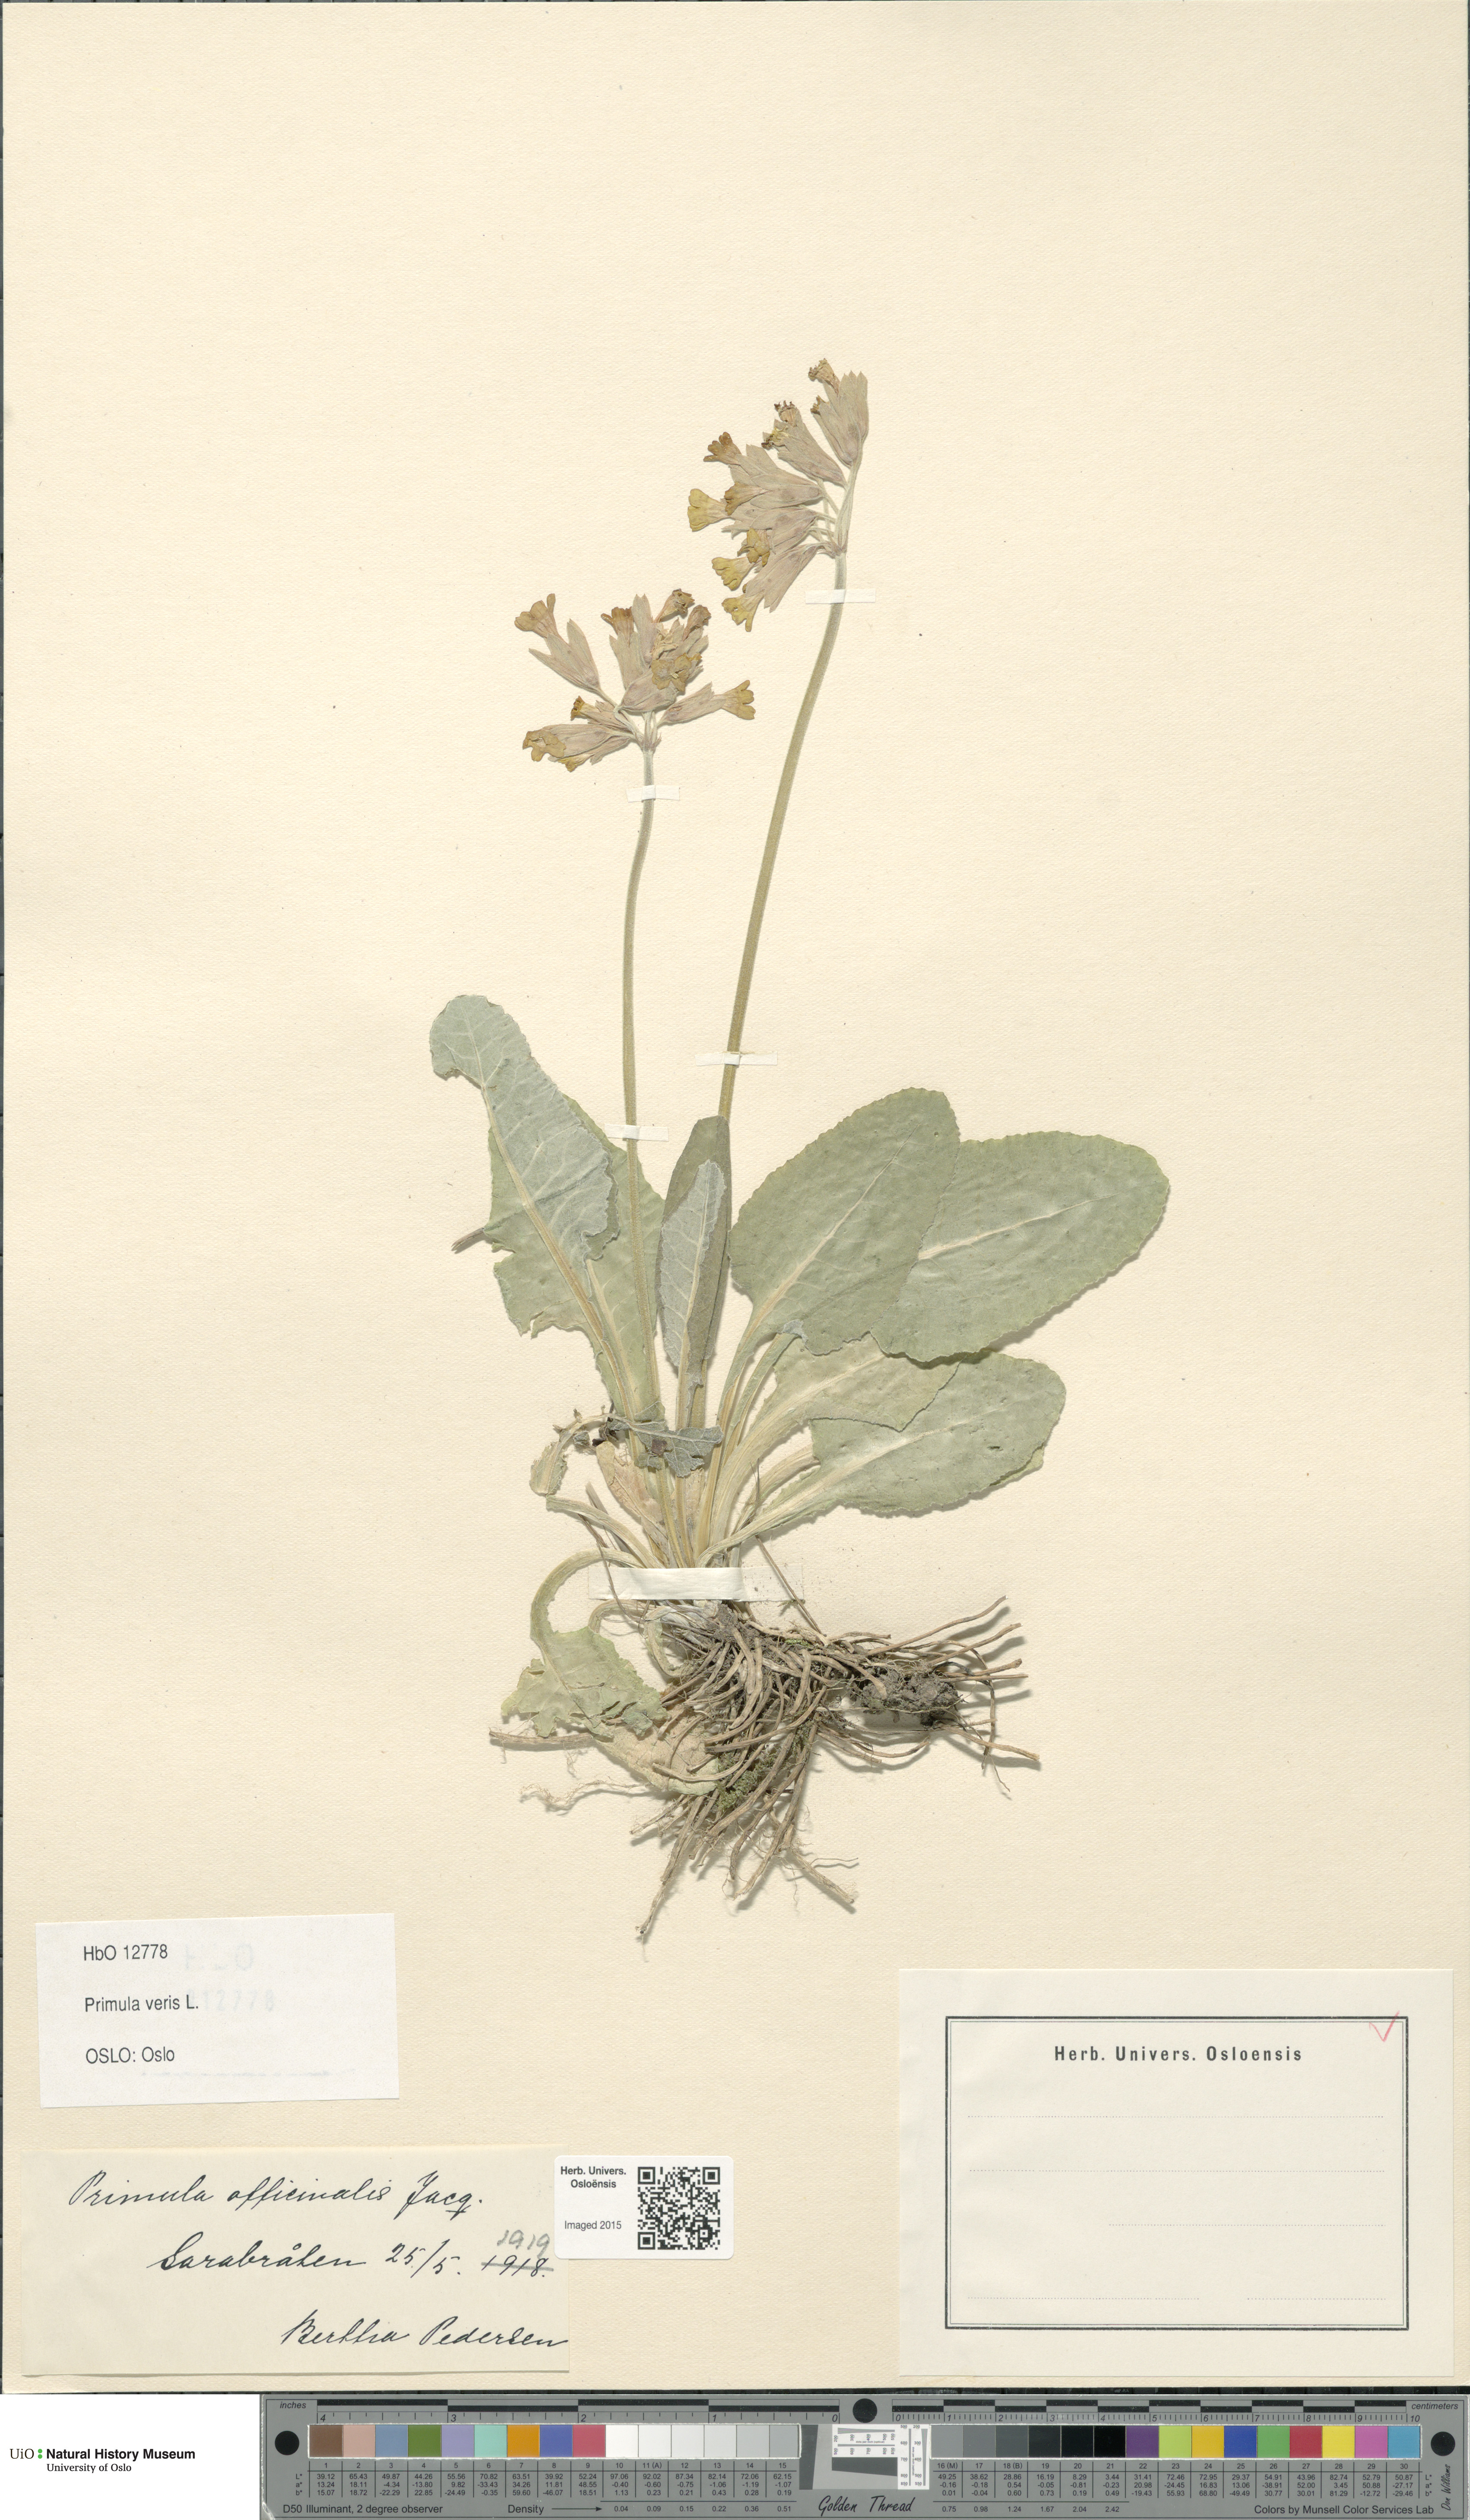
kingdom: Plantae
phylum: Tracheophyta
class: Magnoliopsida
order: Ericales
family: Primulaceae
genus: Primula
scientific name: Primula veris
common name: Cowslip
